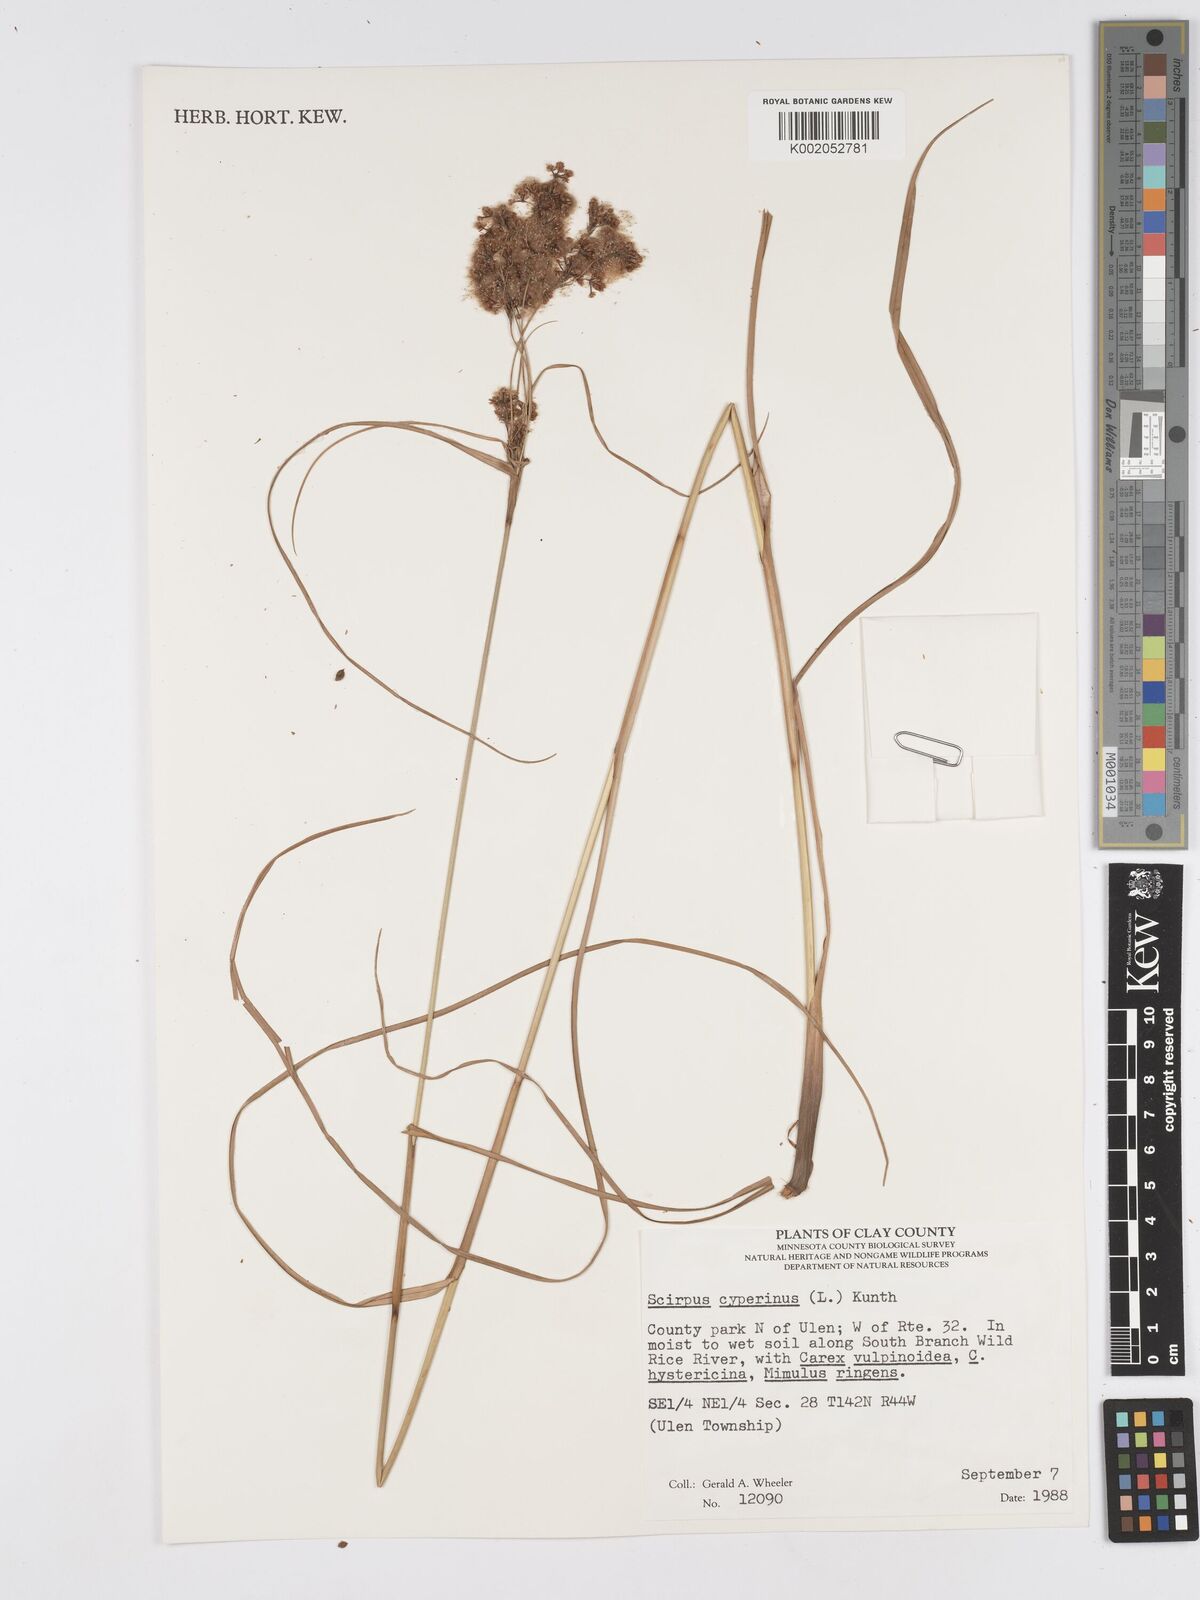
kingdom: Plantae
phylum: Tracheophyta
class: Liliopsida
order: Poales
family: Cyperaceae
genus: Scirpus
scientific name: Scirpus cyperinus
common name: Black-sheathed bulrush
